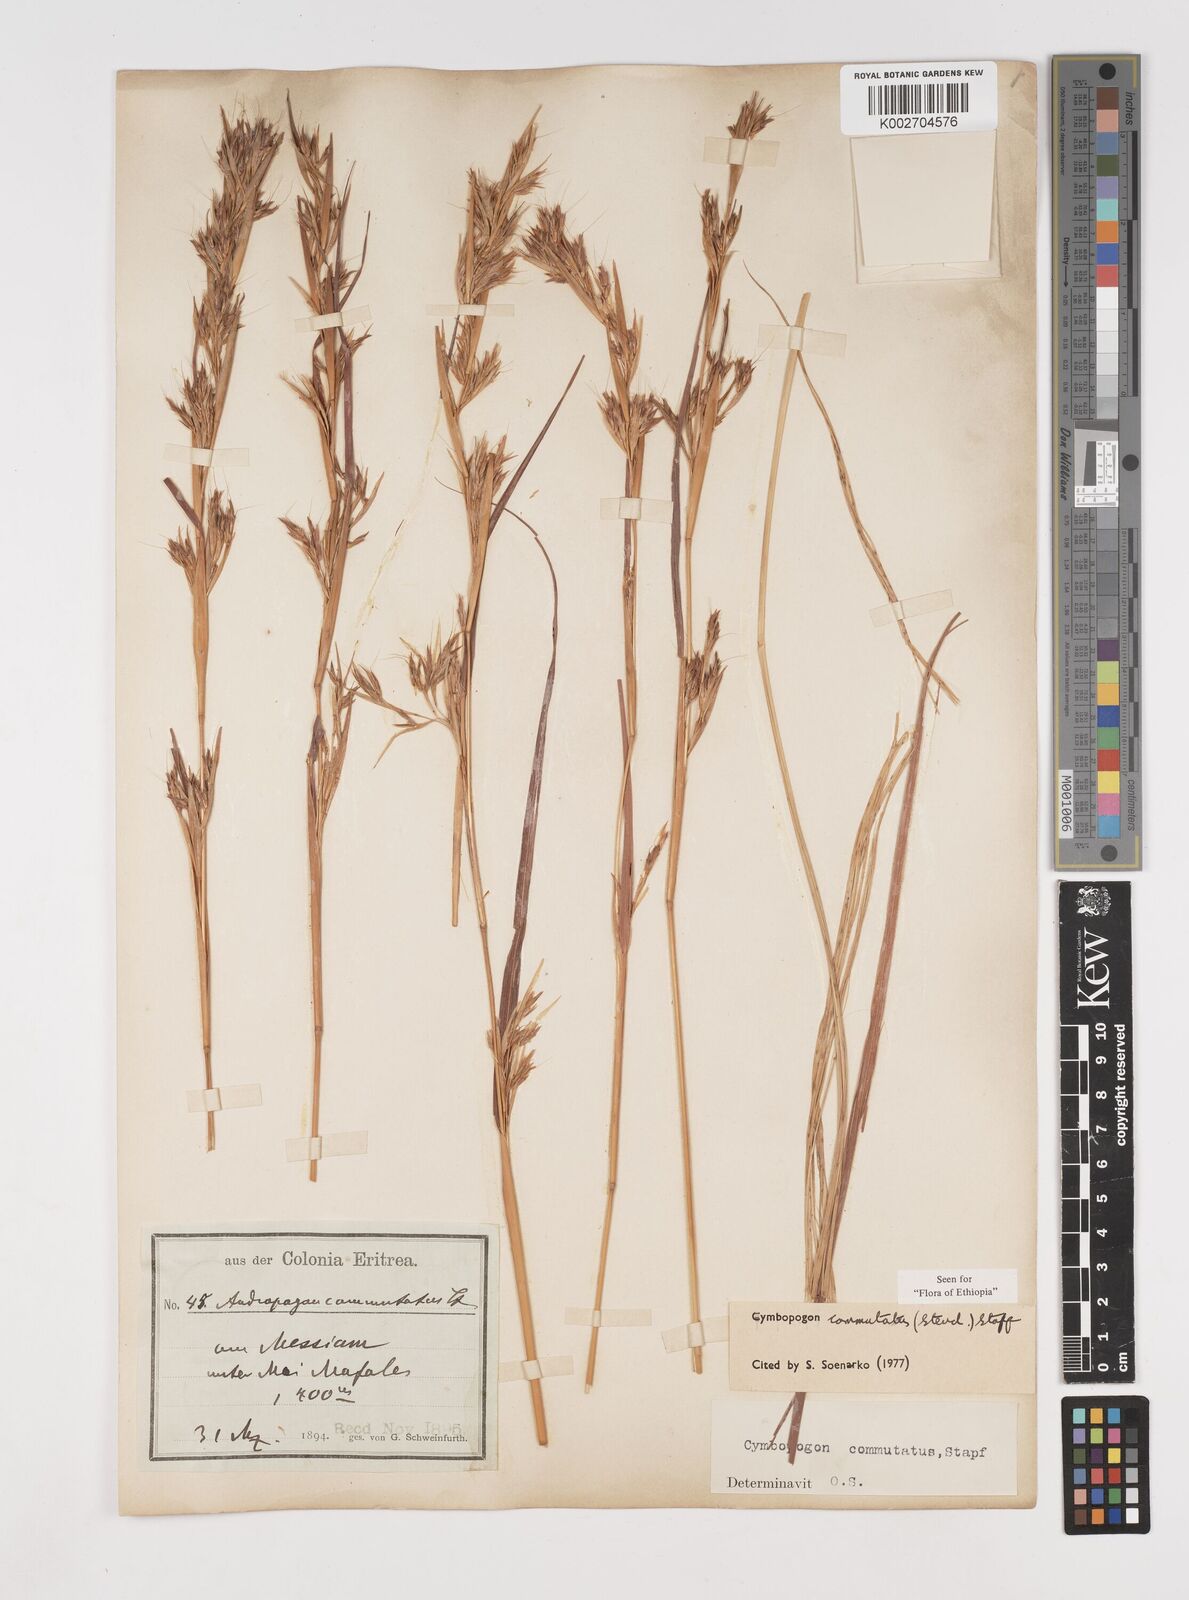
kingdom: Plantae
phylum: Tracheophyta
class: Liliopsida
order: Poales
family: Poaceae
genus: Cymbopogon
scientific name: Cymbopogon commutatus
